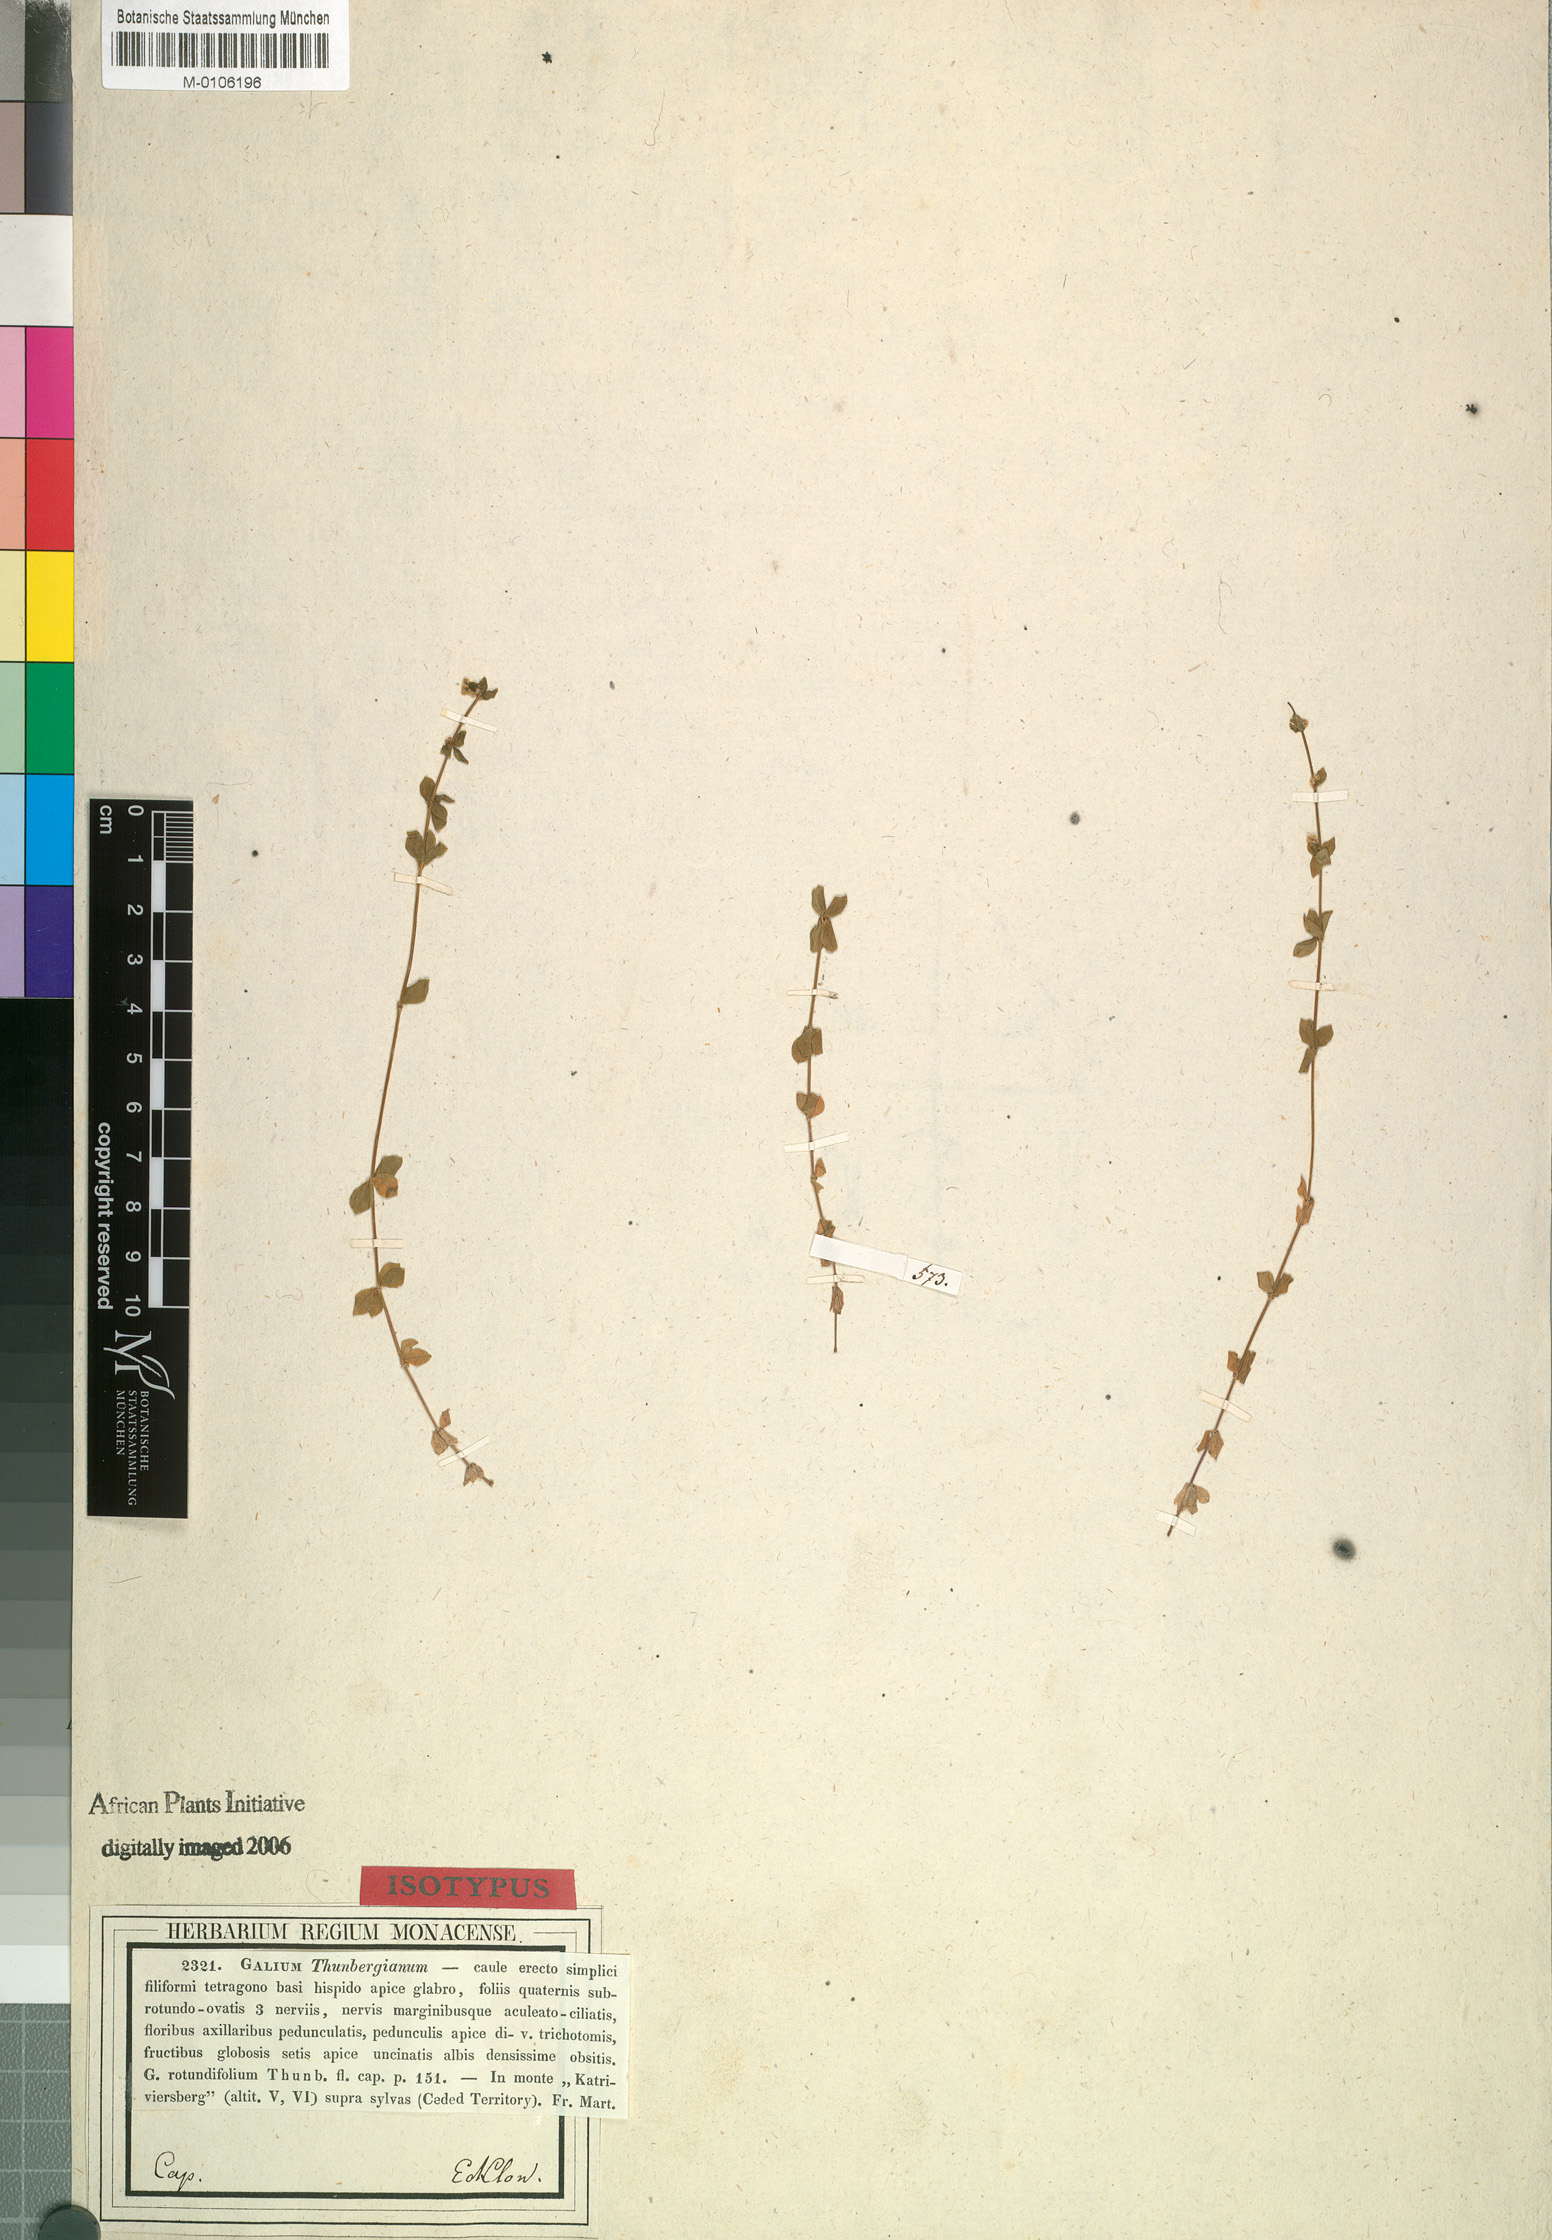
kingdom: Plantae
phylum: Tracheophyta
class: Magnoliopsida
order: Gentianales
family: Rubiaceae
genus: Galium
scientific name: Galium thunbergianum
